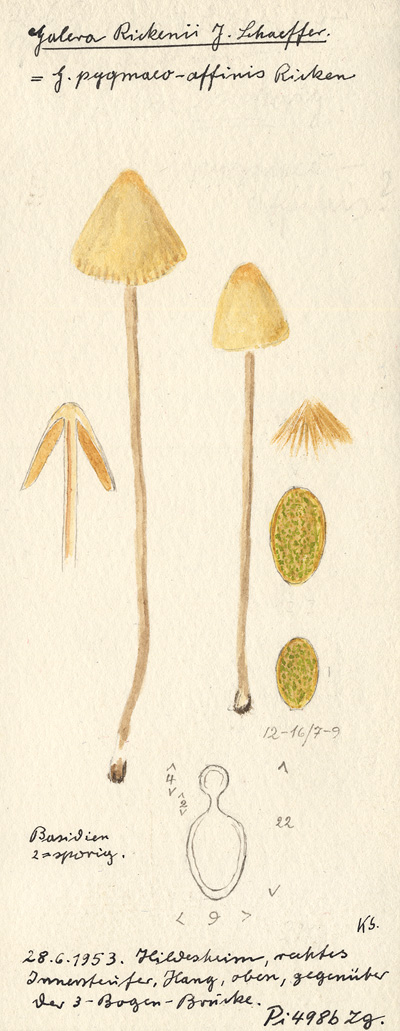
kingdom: Fungi
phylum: Basidiomycota
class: Agaricomycetes
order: Agaricales
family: Bolbitiaceae
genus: Conocybe
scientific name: Conocybe rickenii
